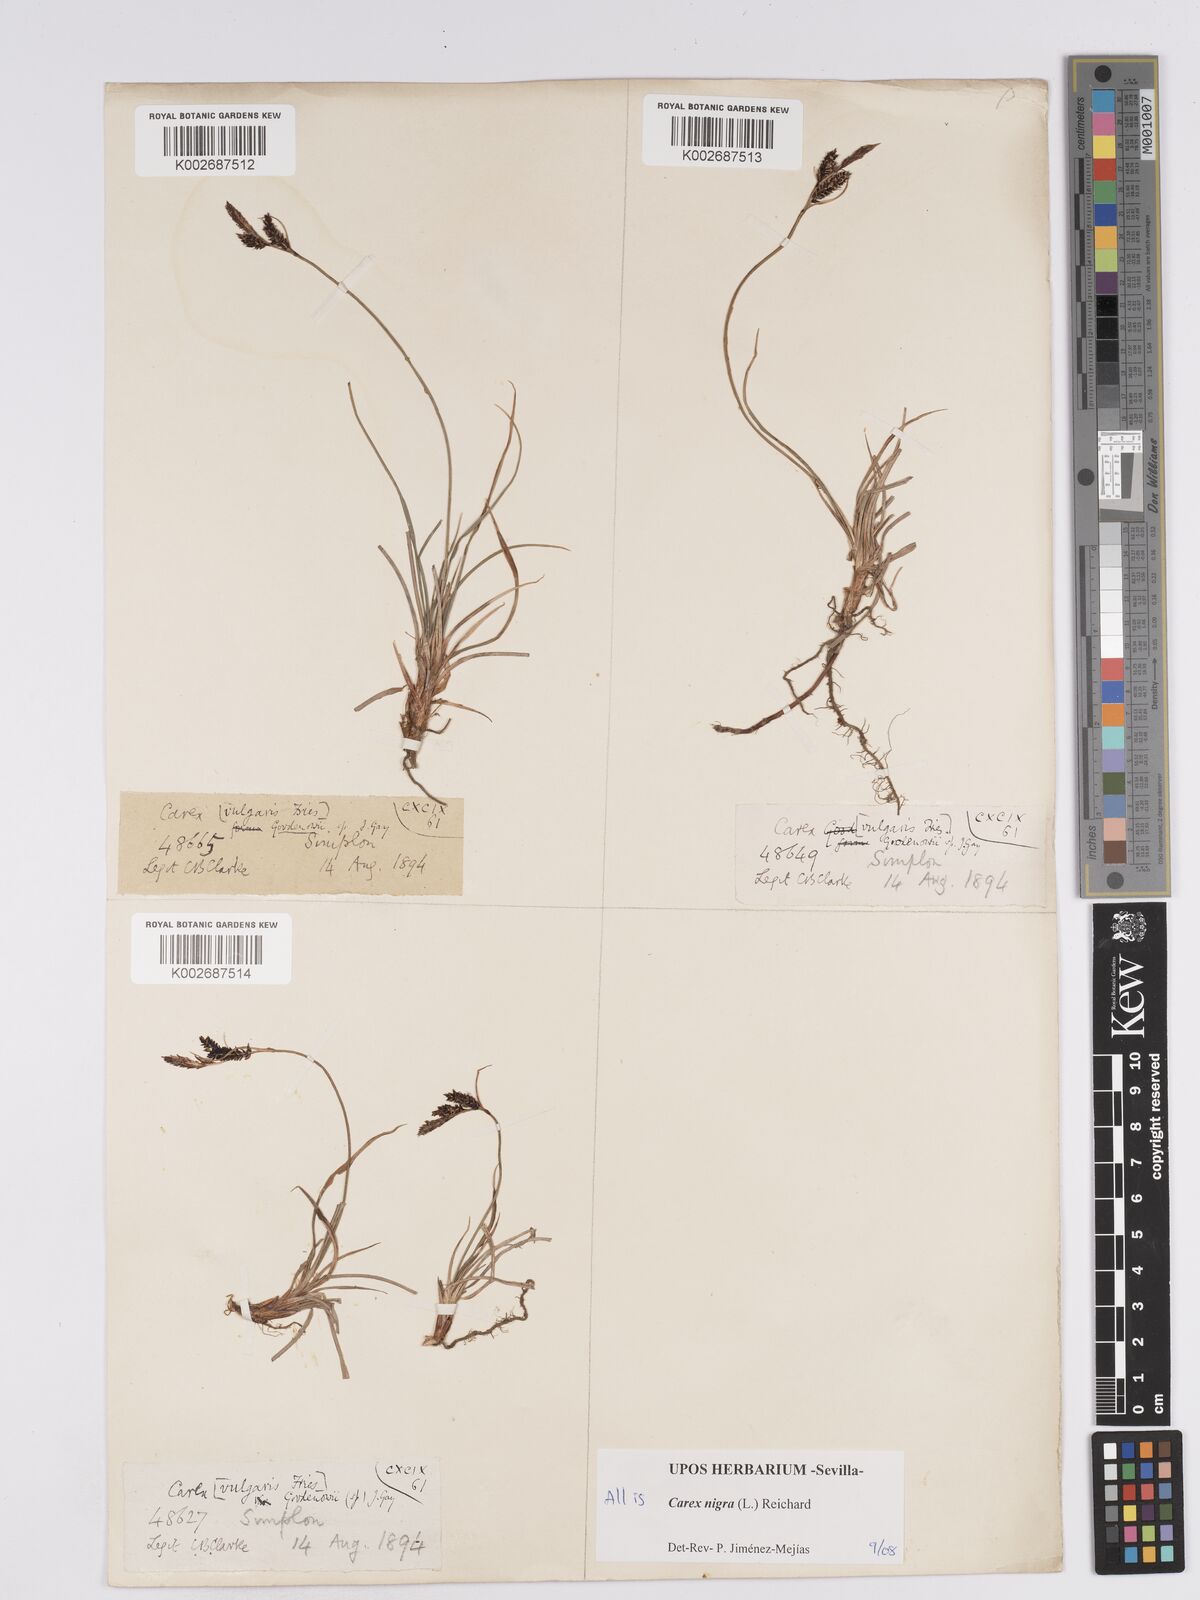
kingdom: Plantae
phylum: Tracheophyta
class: Liliopsida
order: Poales
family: Cyperaceae
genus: Carex
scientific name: Carex nigra
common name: Common sedge
